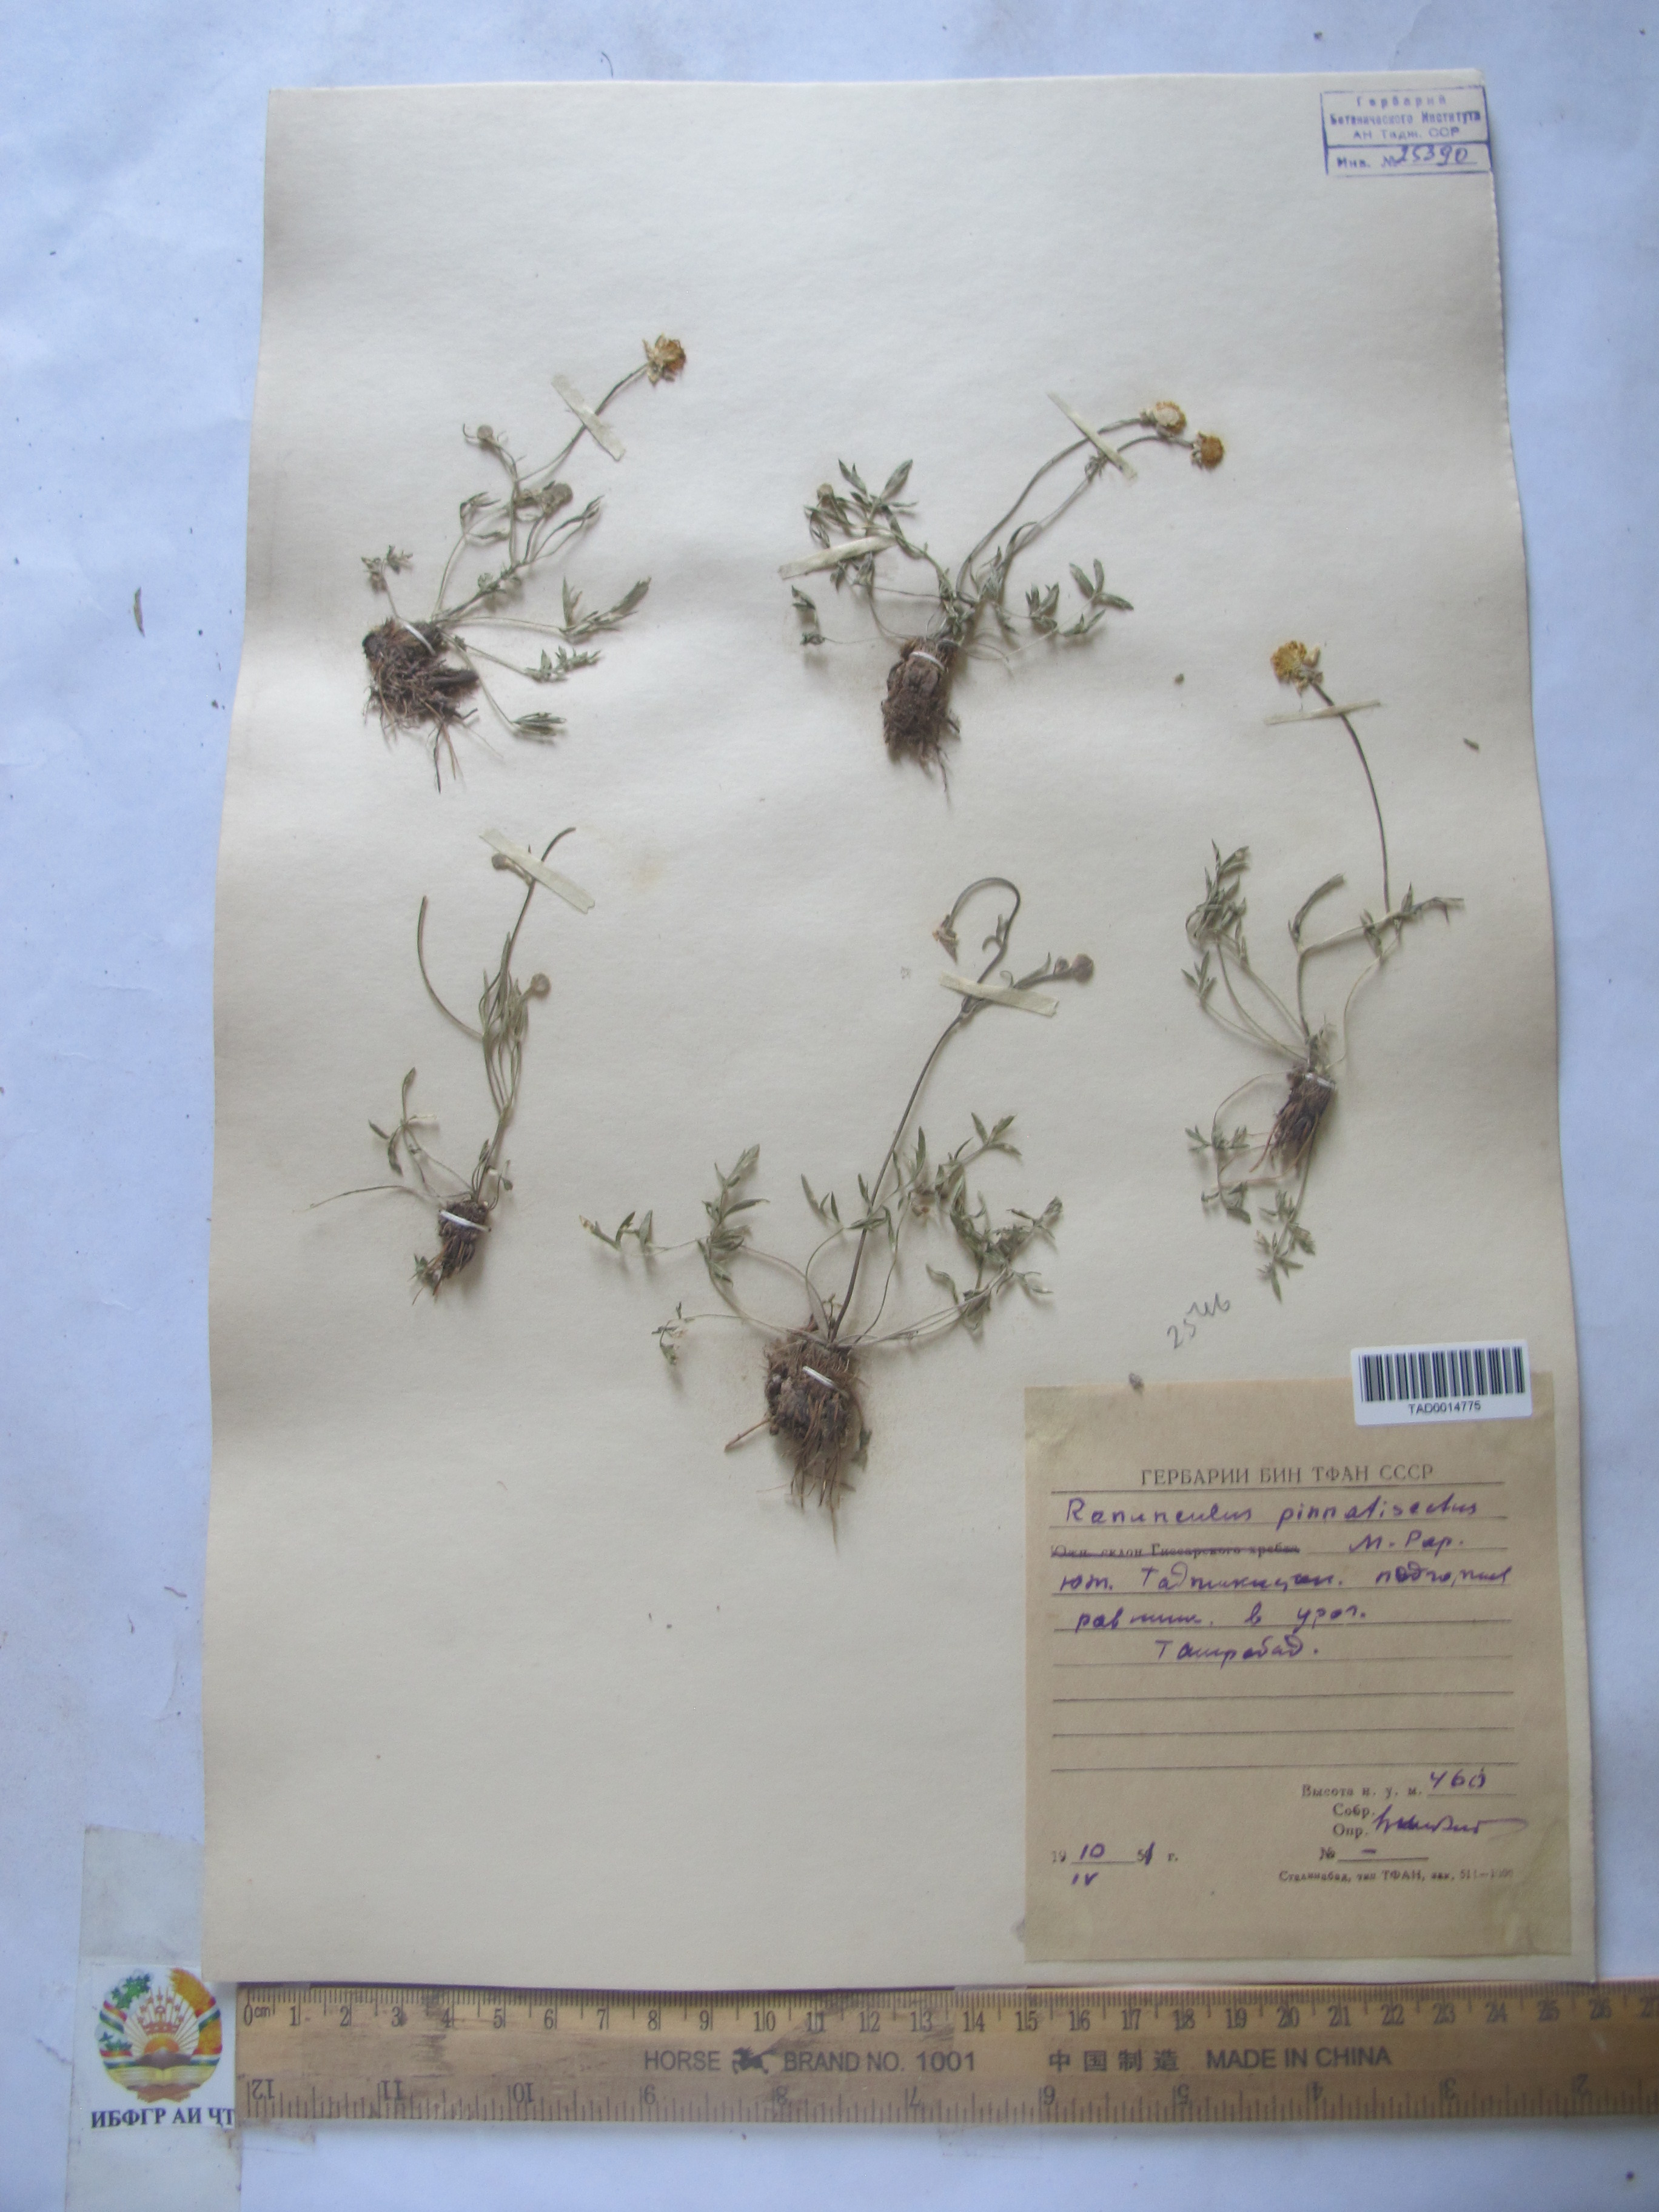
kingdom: Plantae
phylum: Tracheophyta
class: Magnoliopsida
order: Ranunculales
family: Ranunculaceae
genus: Ranunculus
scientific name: Ranunculus pinnatisectus
